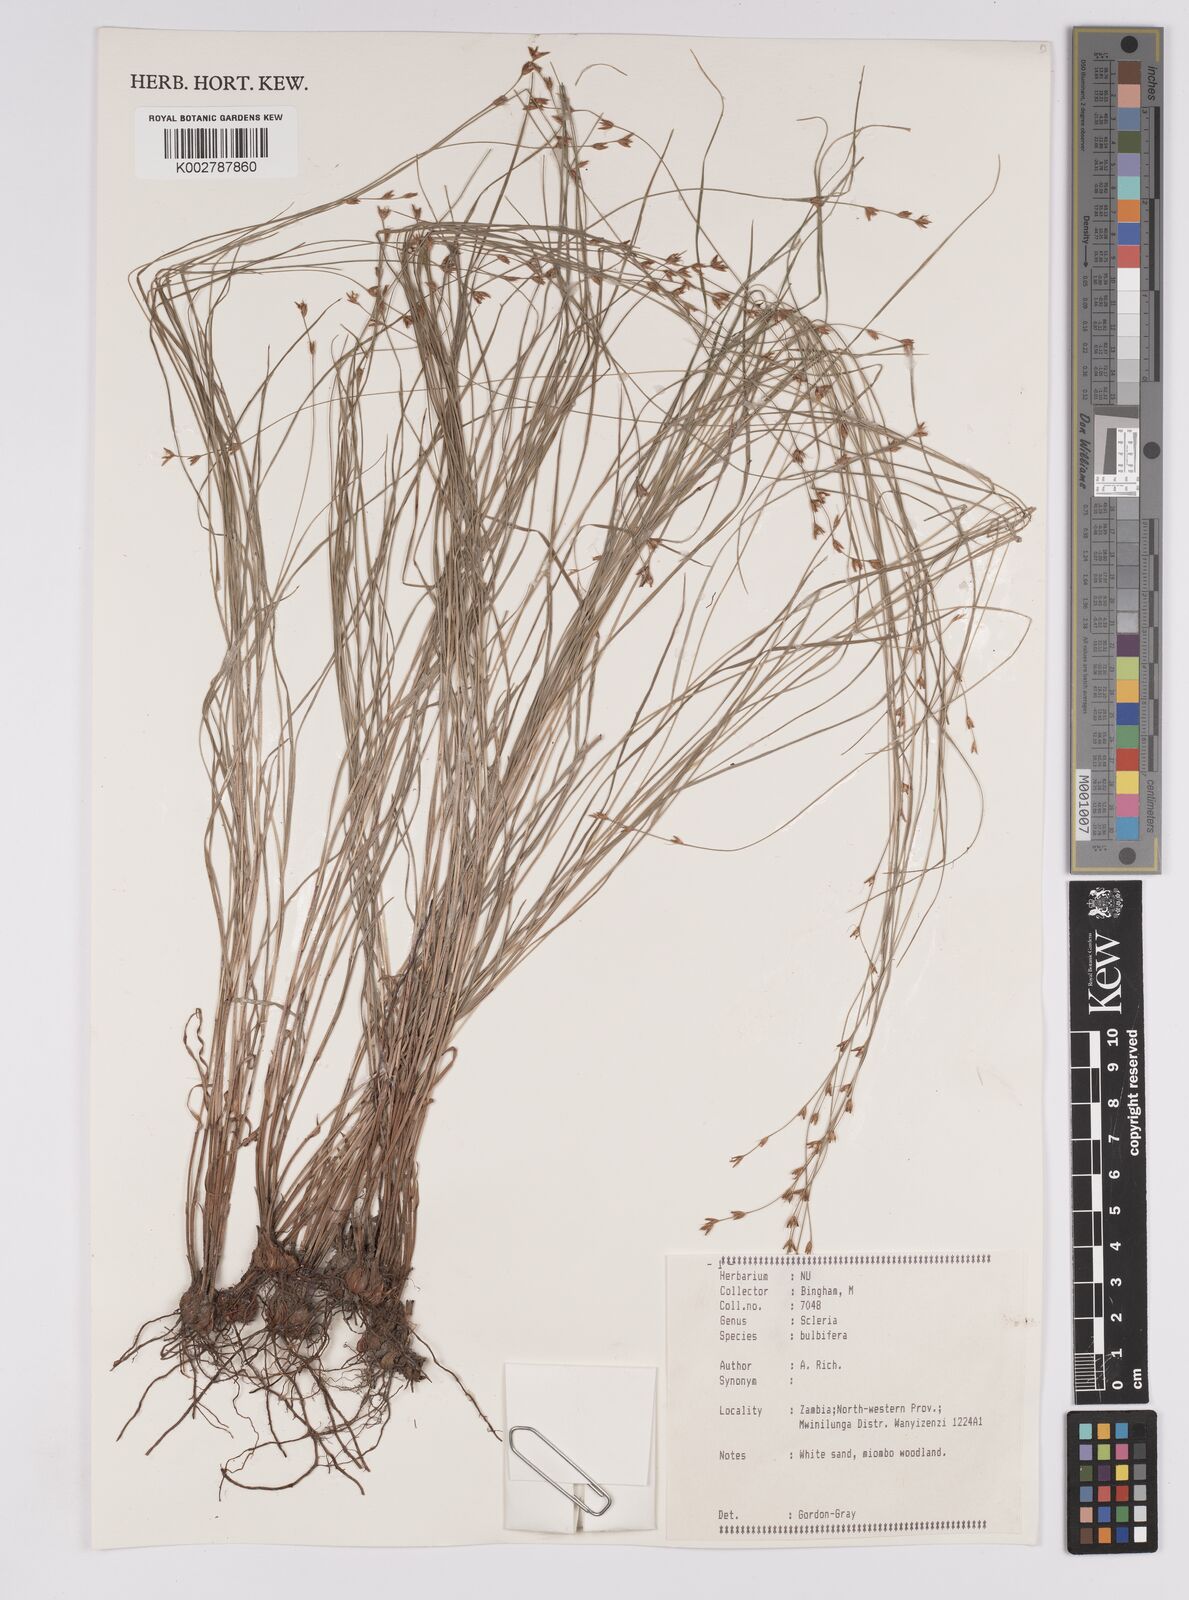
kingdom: Plantae
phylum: Tracheophyta
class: Liliopsida
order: Poales
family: Cyperaceae
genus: Scleria
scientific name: Scleria bulbifera
